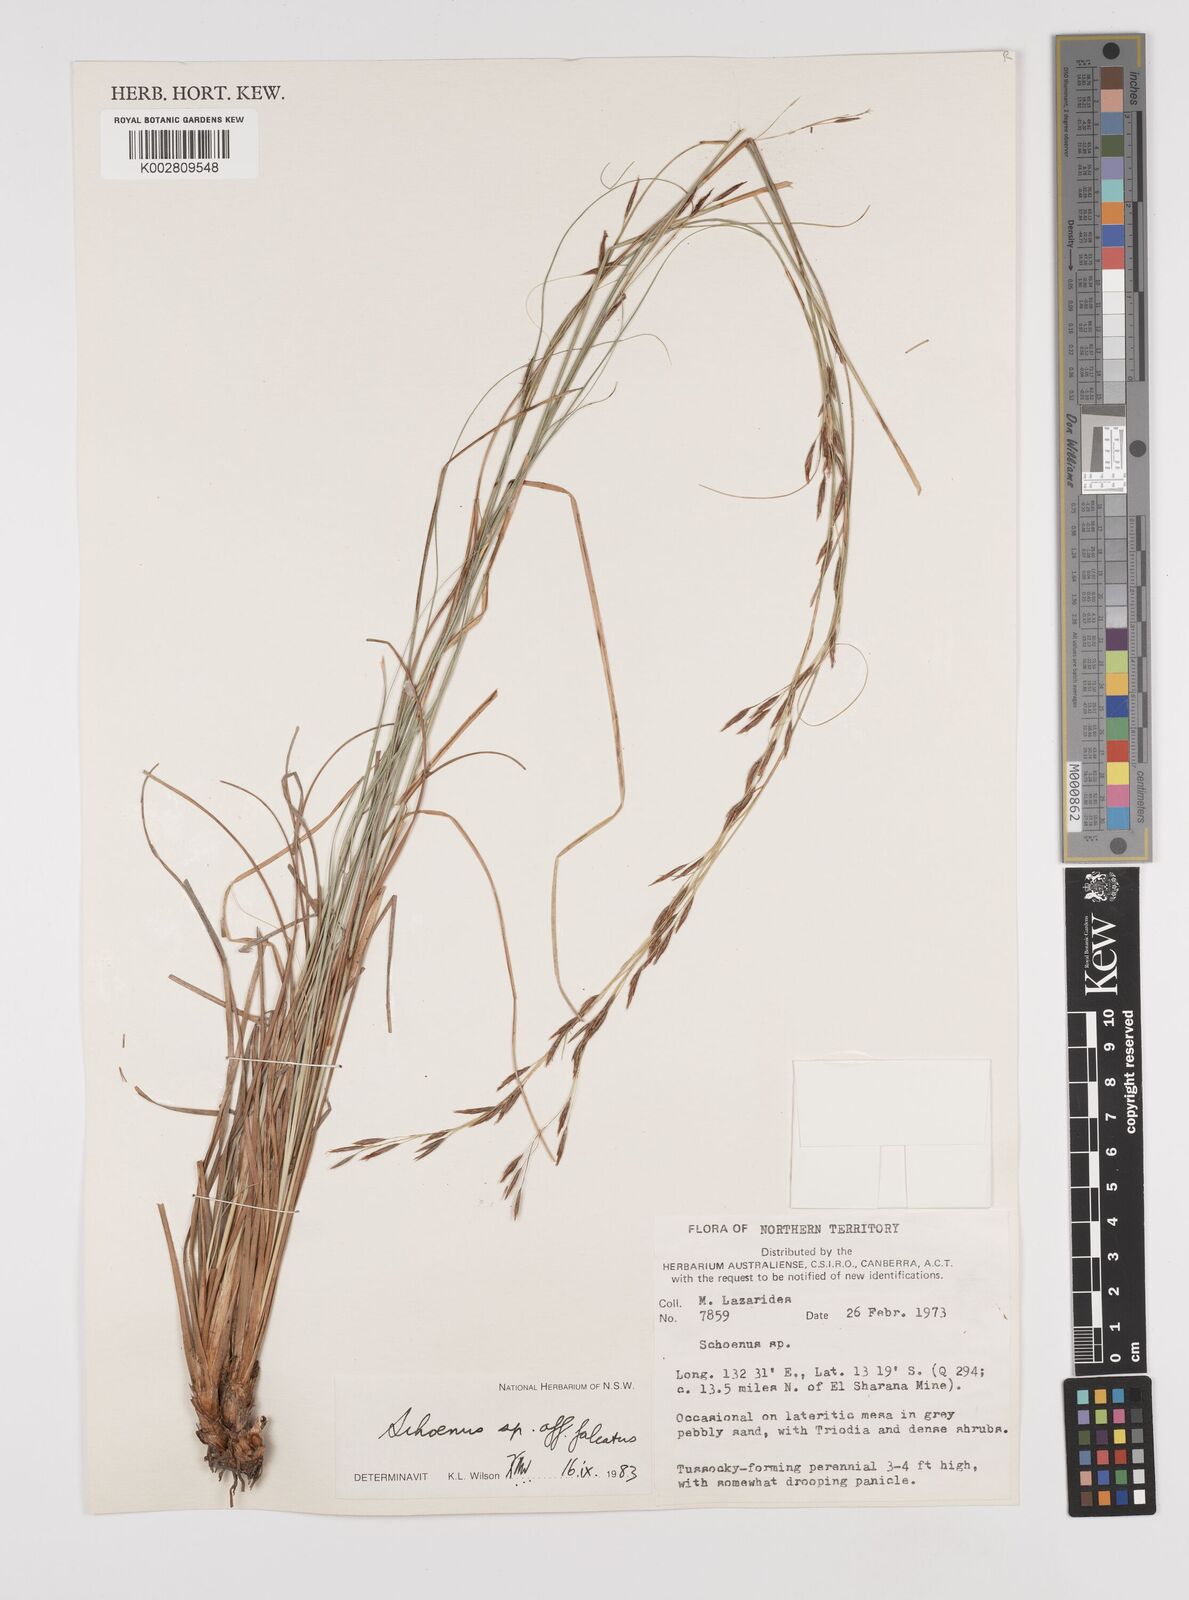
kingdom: Plantae
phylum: Tracheophyta
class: Liliopsida
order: Poales
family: Cyperaceae
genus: Schoenus
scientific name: Schoenus
